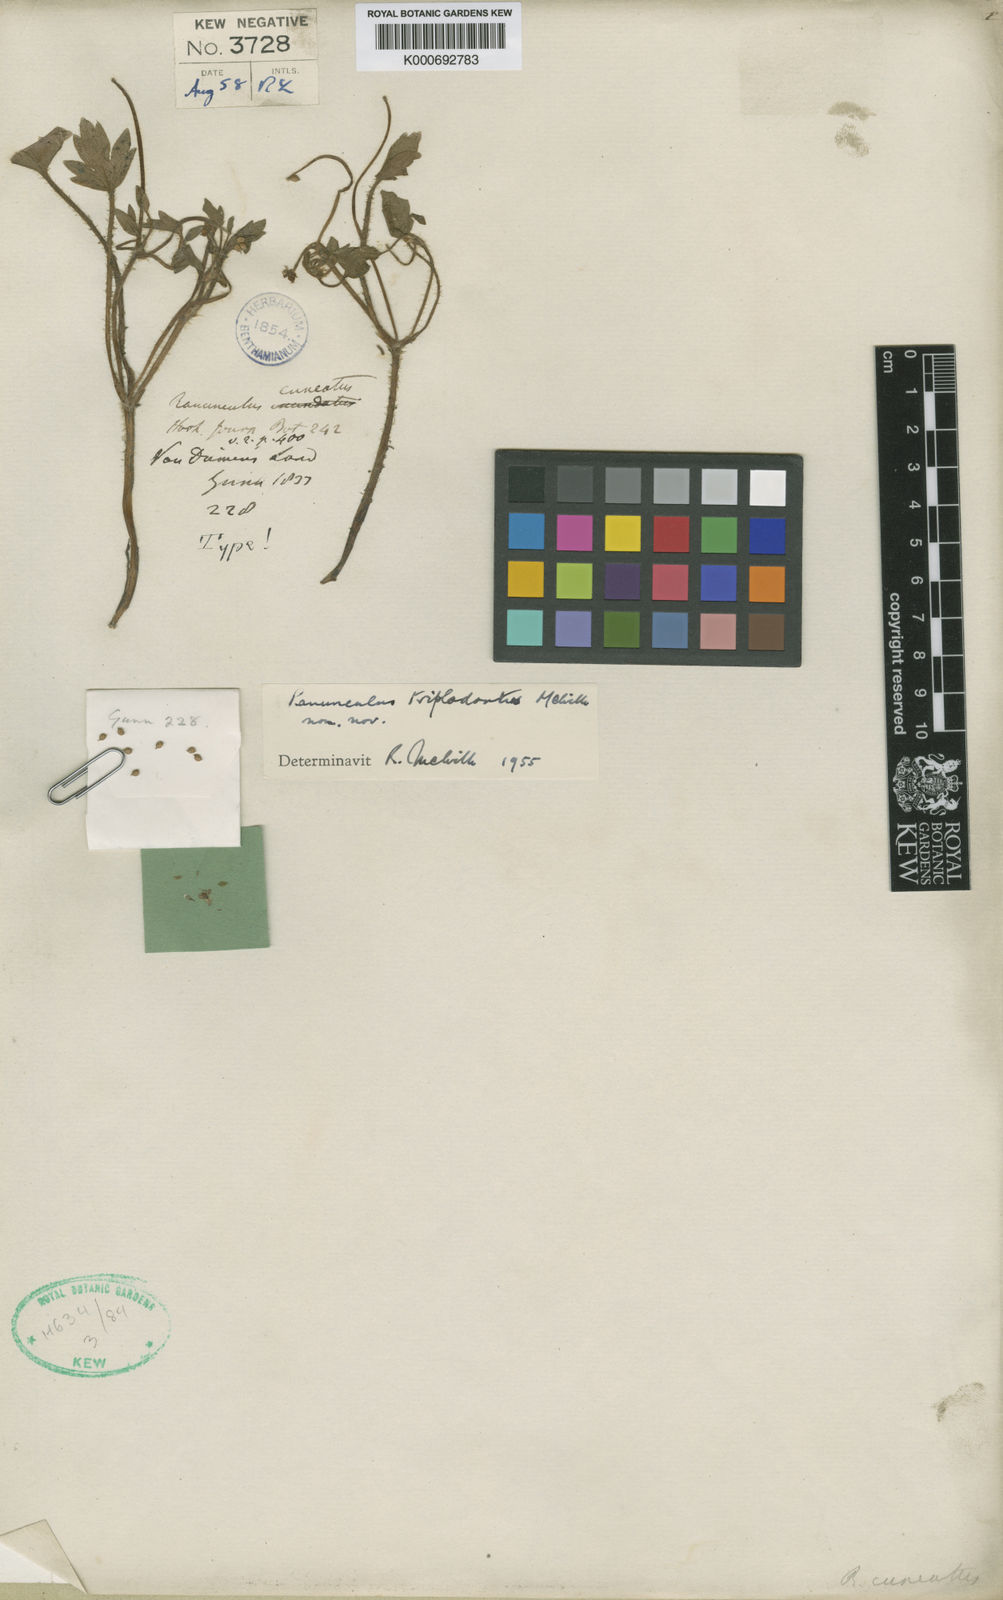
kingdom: Plantae
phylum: Tracheophyta
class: Magnoliopsida
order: Ranunculales
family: Ranunculaceae
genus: Ranunculus
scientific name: Ranunculus triplodontus
